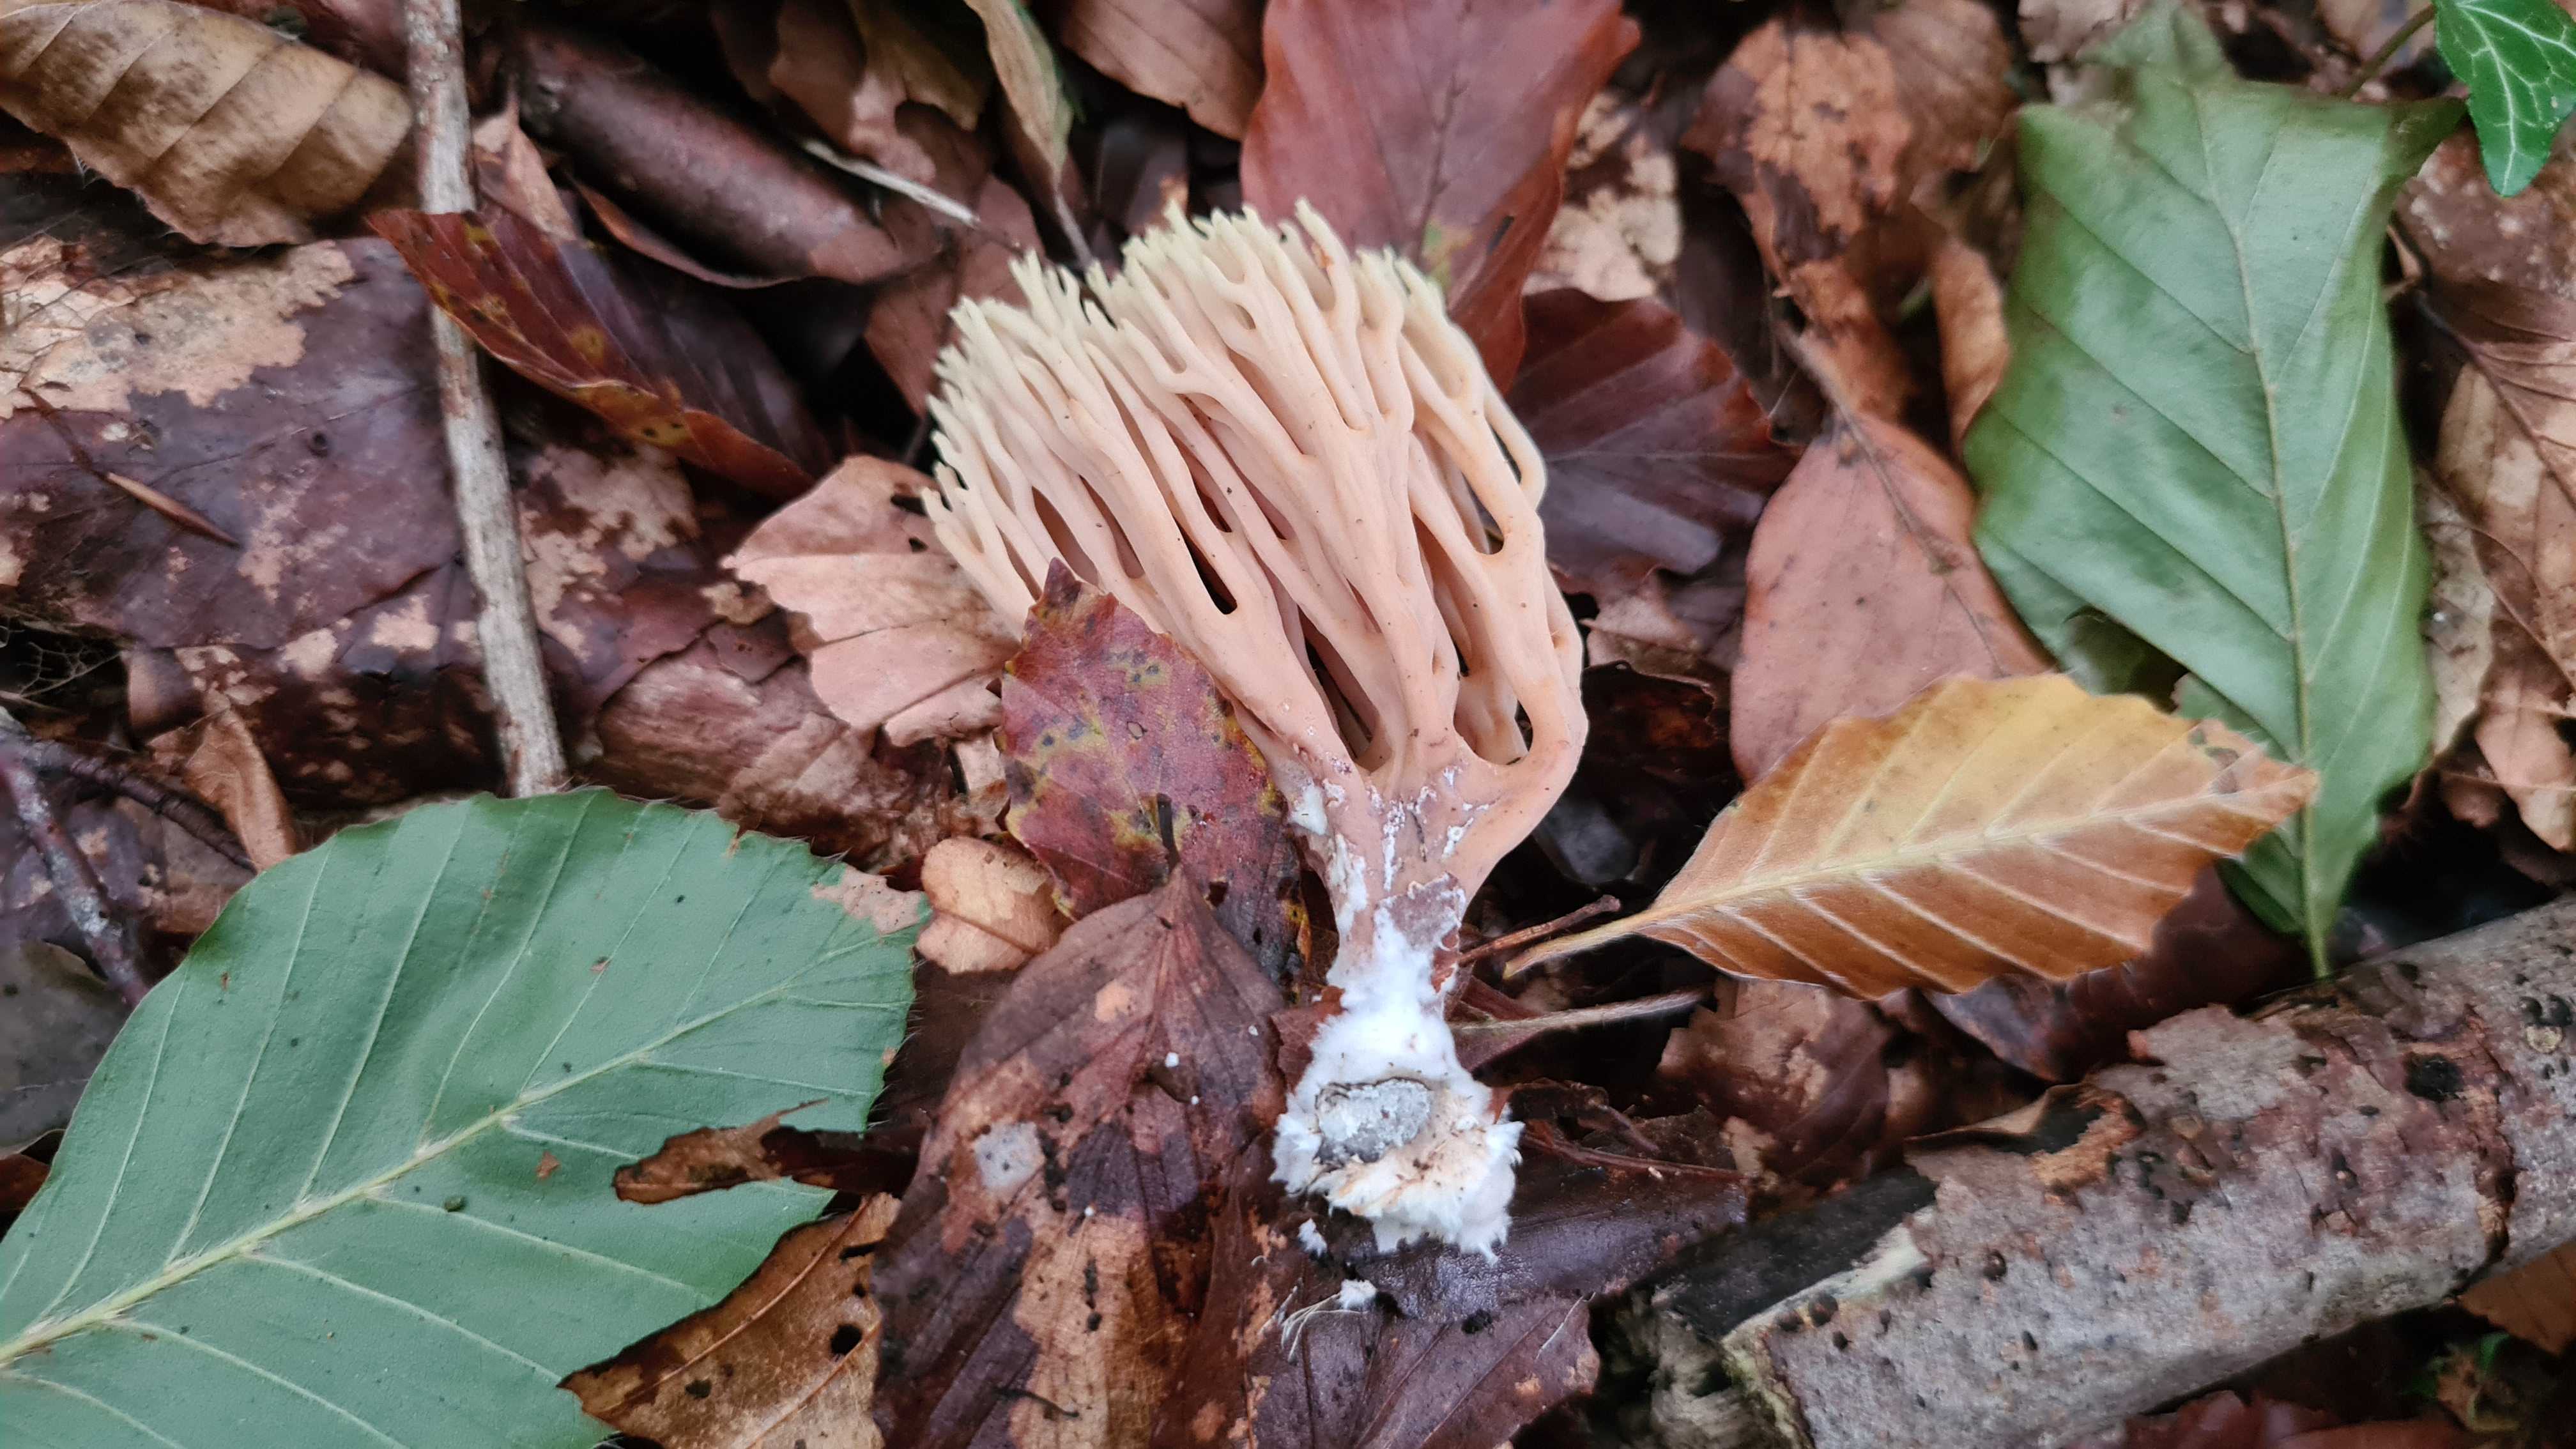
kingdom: Fungi
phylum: Basidiomycota
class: Agaricomycetes
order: Gomphales
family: Gomphaceae
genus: Ramaria
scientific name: Ramaria stricta
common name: rank koralsvamp
